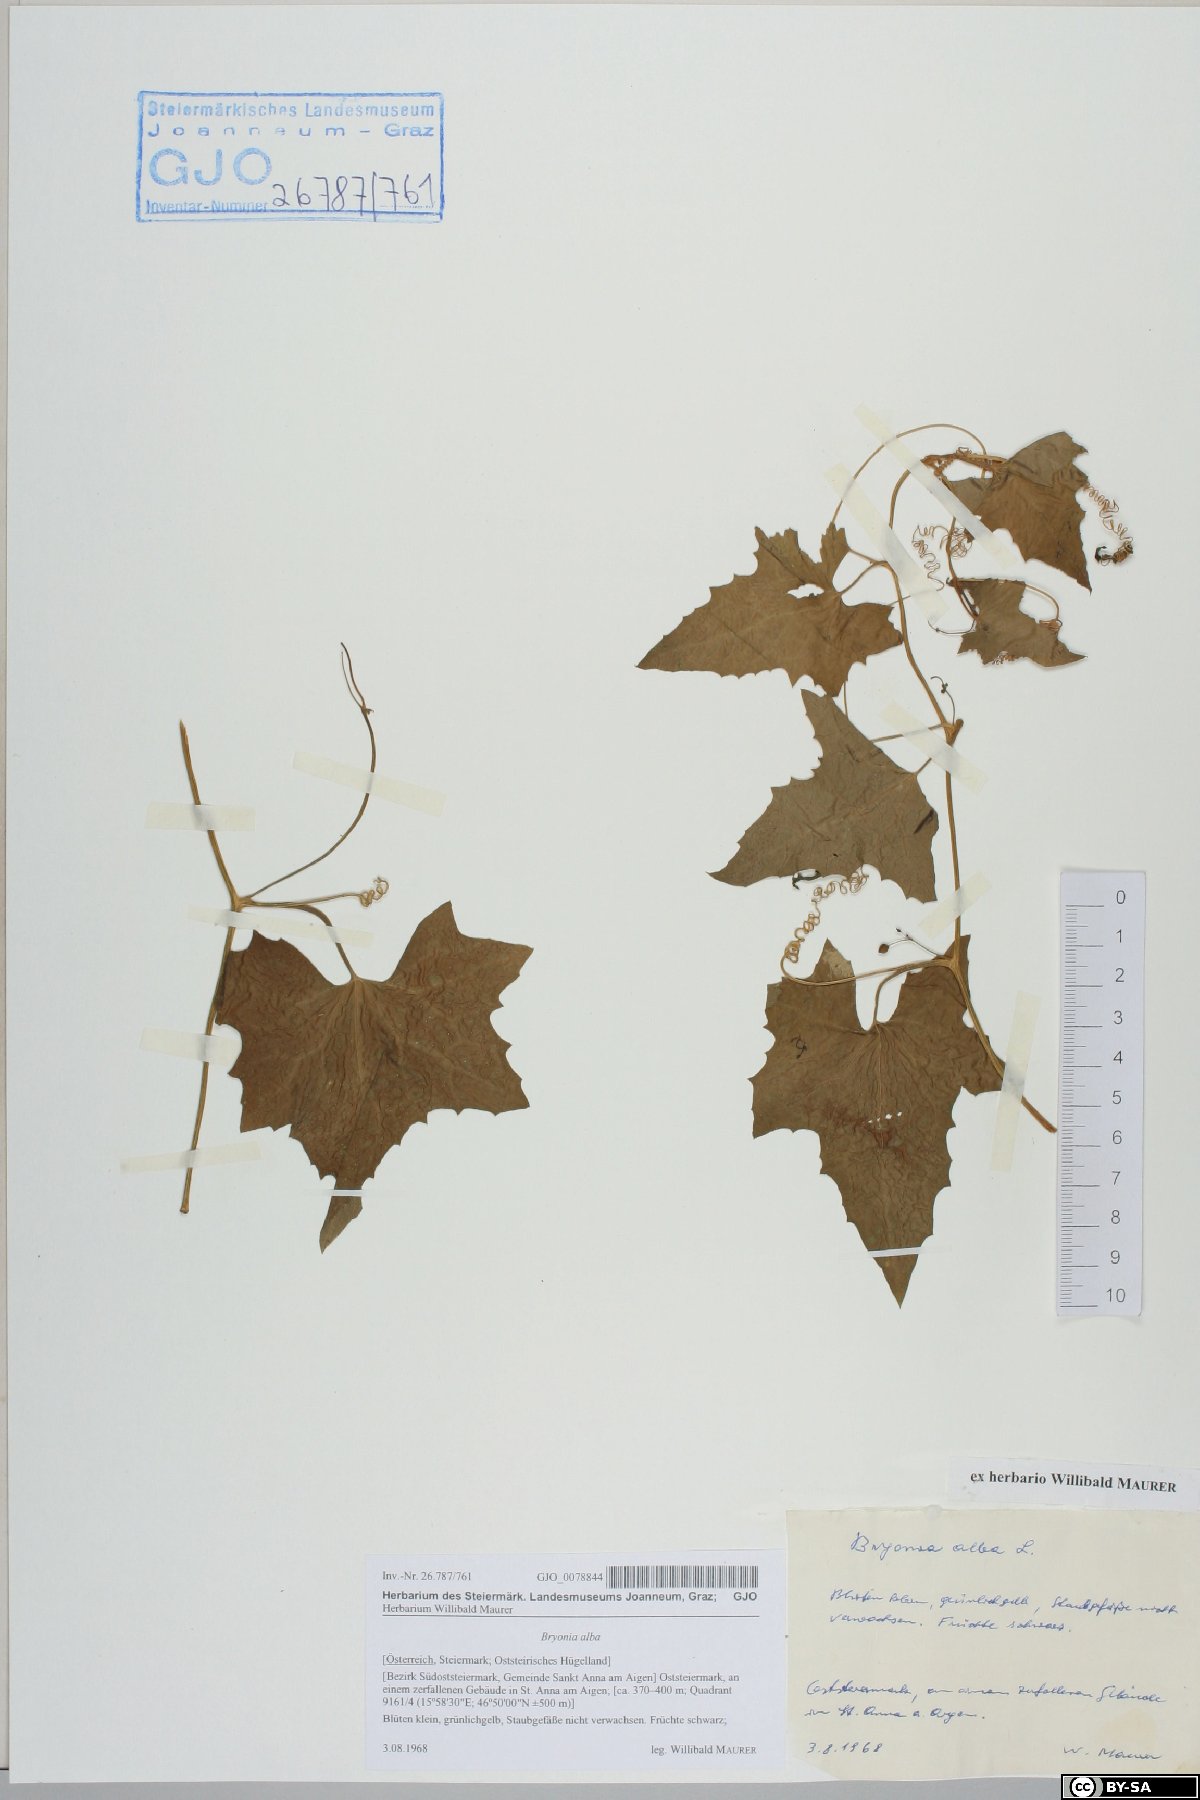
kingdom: Plantae
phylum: Tracheophyta
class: Magnoliopsida
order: Cucurbitales
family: Cucurbitaceae
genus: Bryonia
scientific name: Bryonia alba
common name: White bryony
